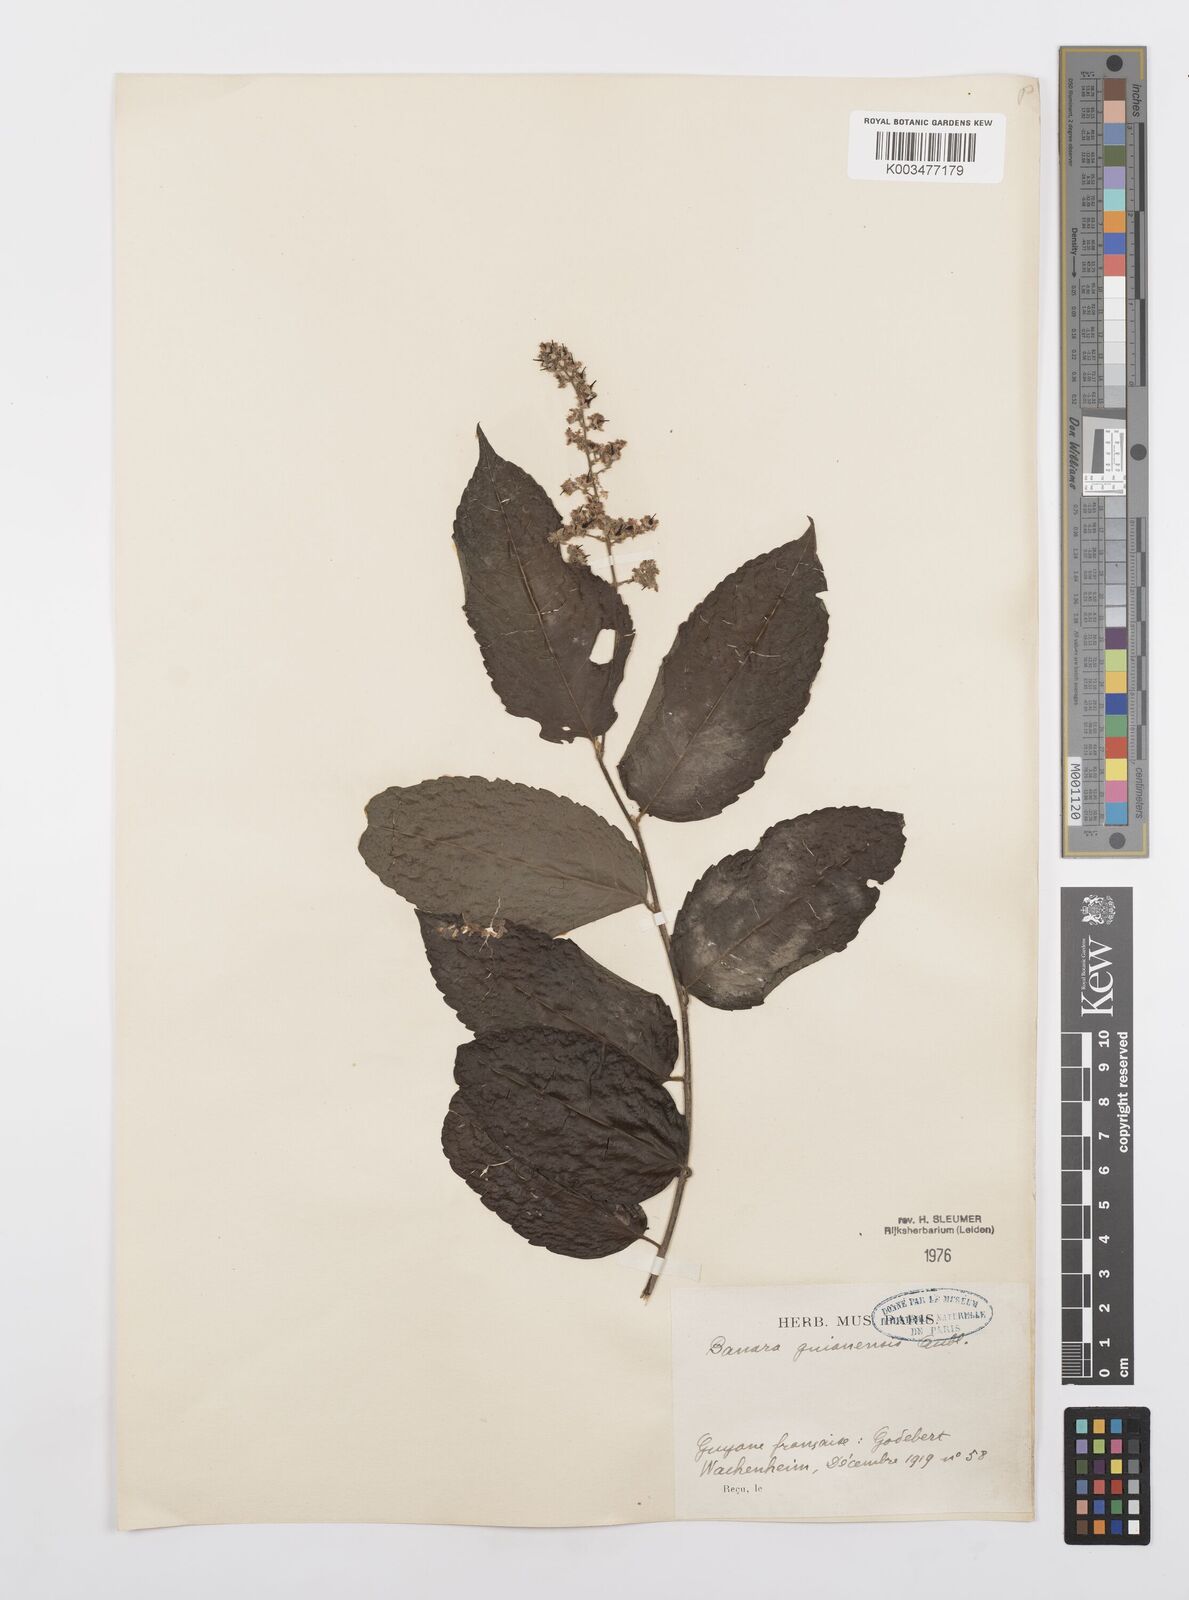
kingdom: Plantae
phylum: Tracheophyta
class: Magnoliopsida
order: Malpighiales
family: Salicaceae
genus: Banara
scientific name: Banara guianensis
